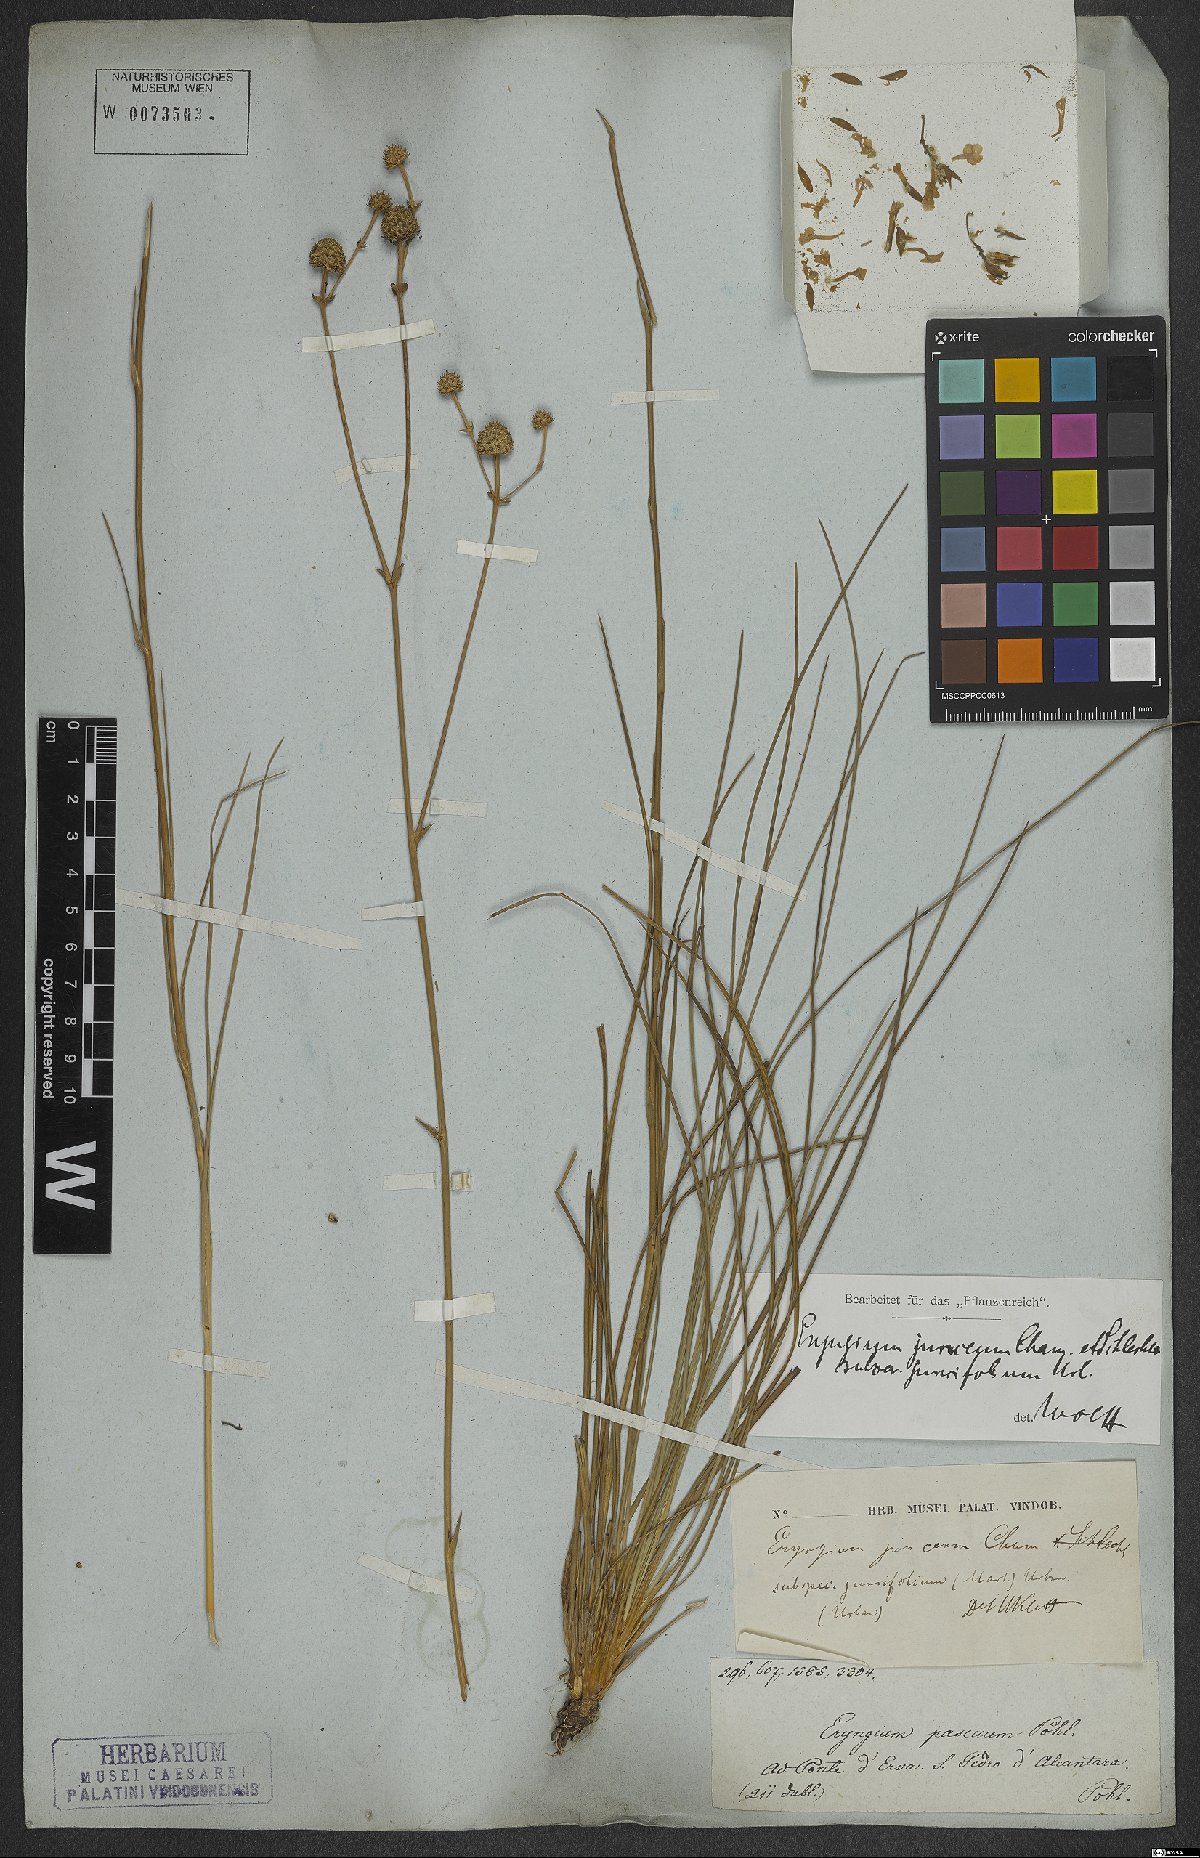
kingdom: Plantae
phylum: Tracheophyta
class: Magnoliopsida
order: Apiales
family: Apiaceae
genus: Eryngium
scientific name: Eryngium juncifolium
